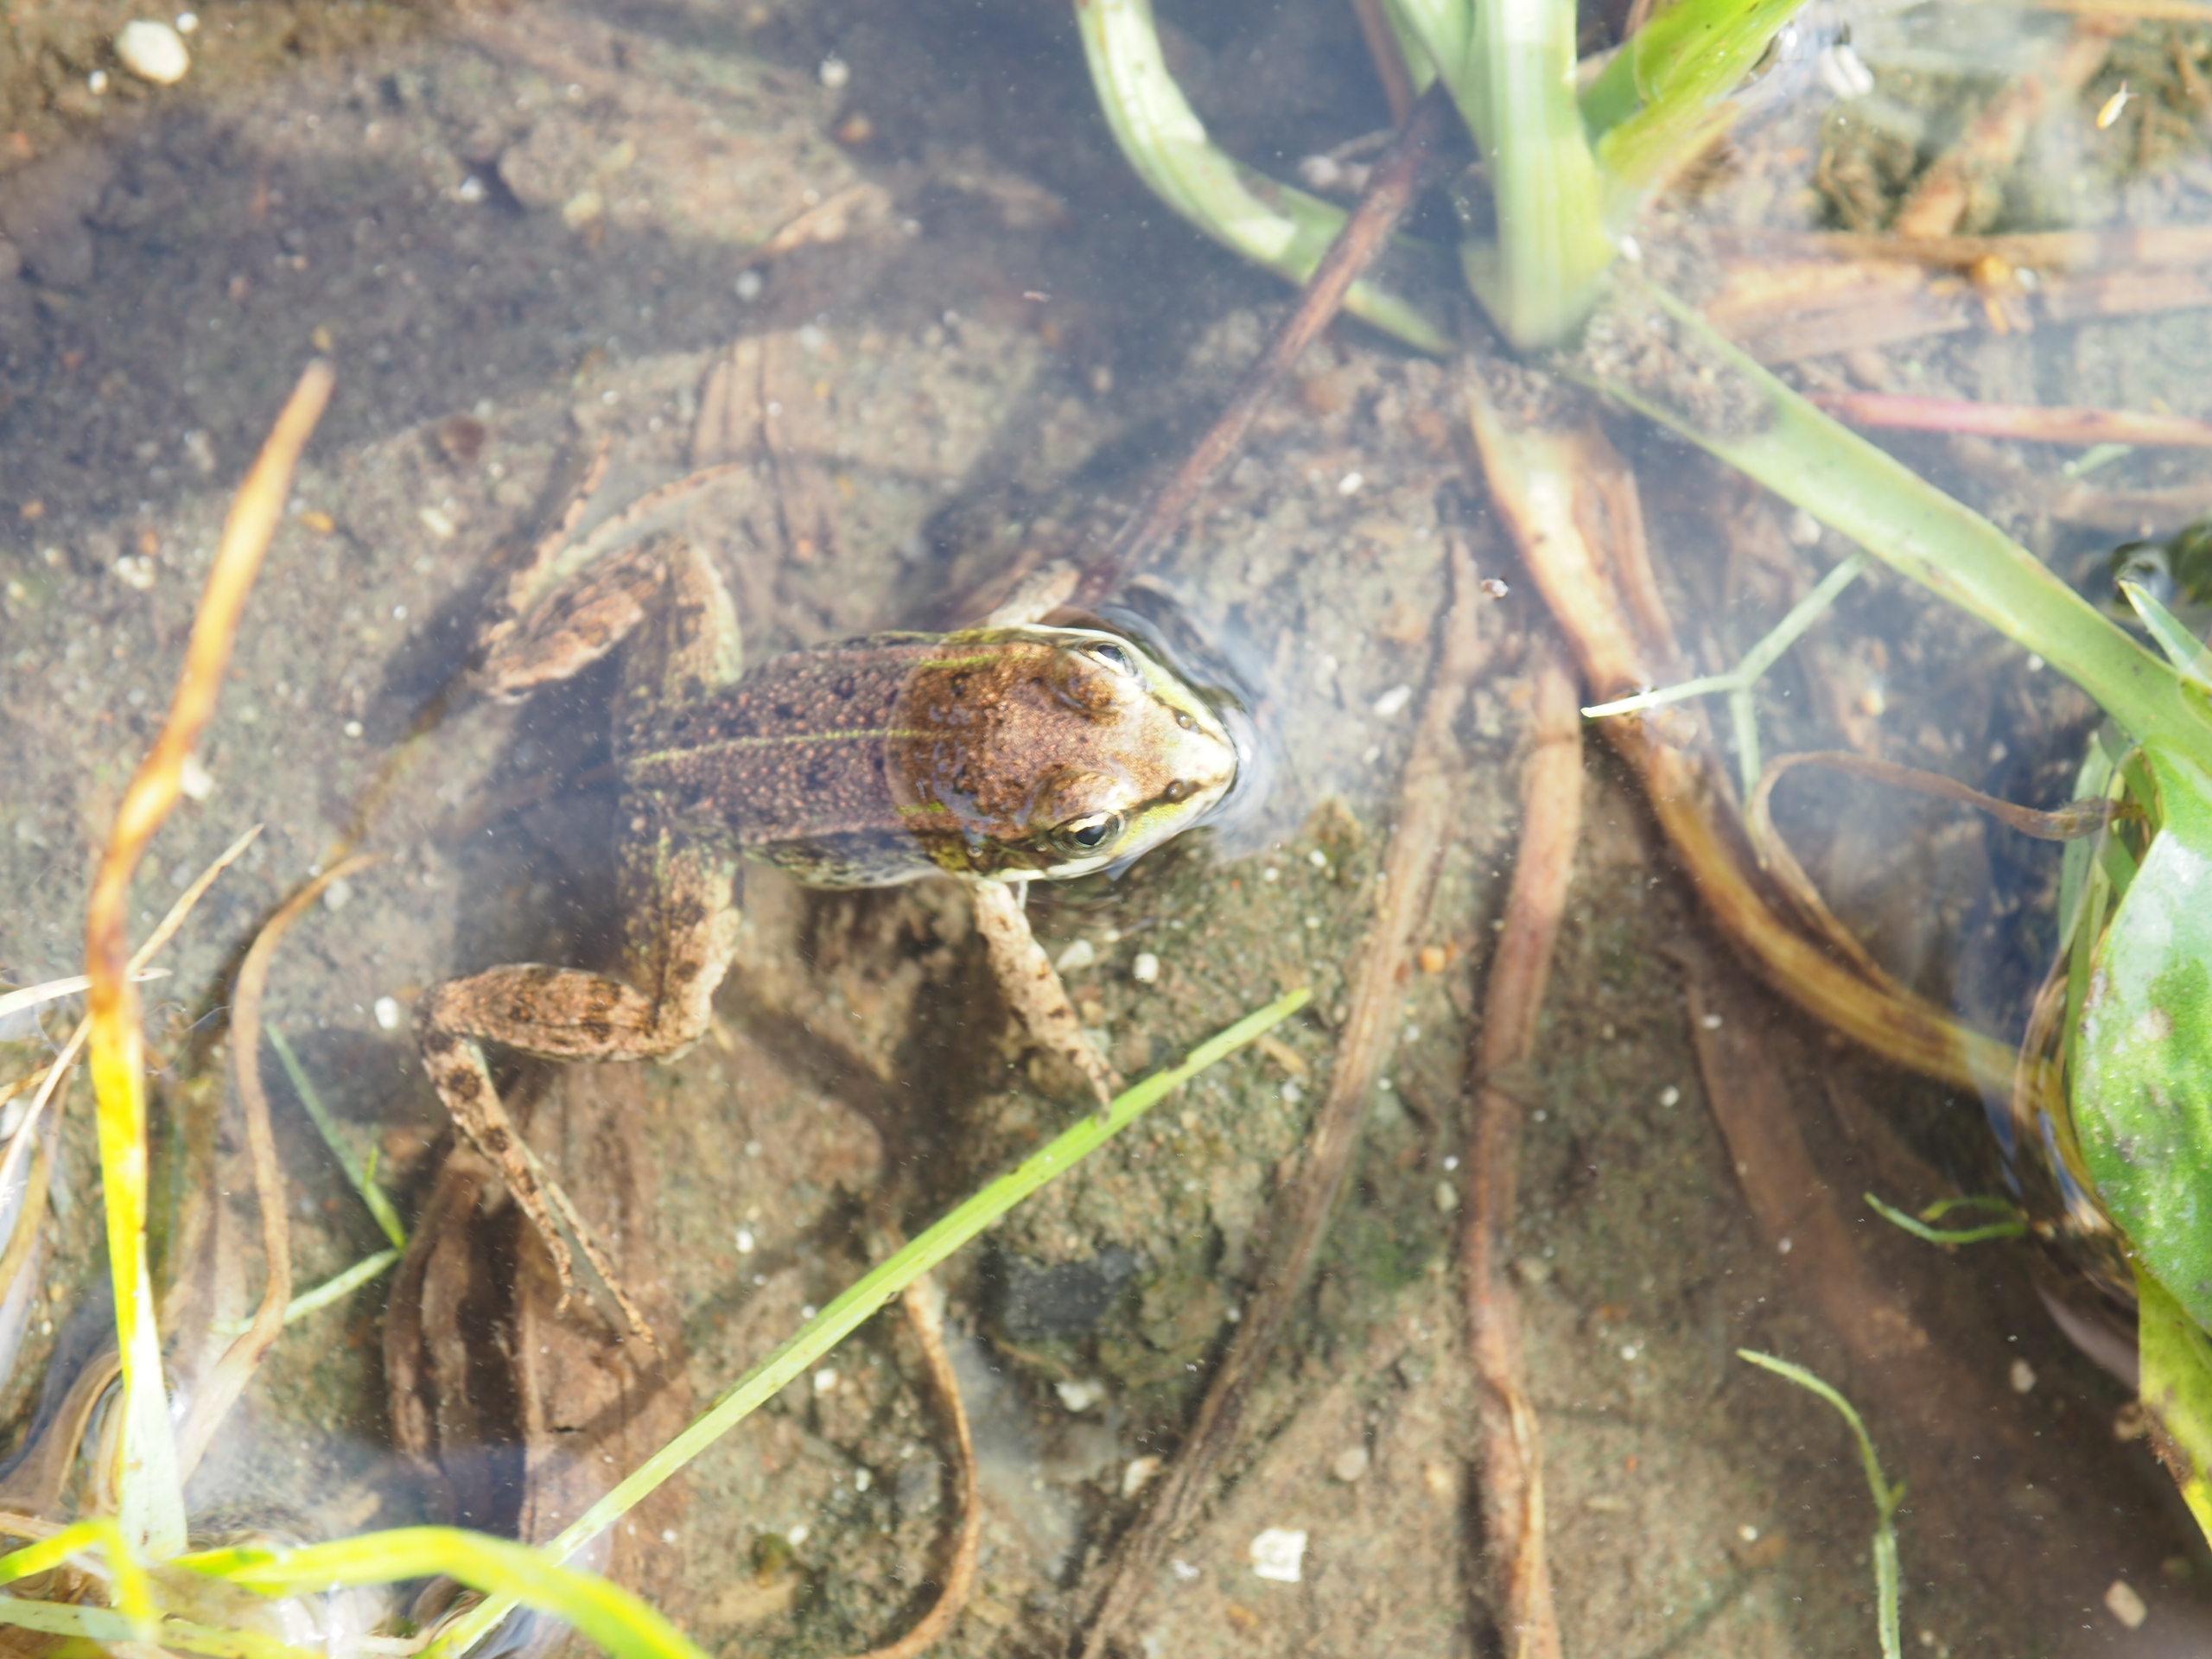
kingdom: Animalia
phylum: Chordata
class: Amphibia
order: Anura
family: Ranidae
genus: Pelophylax
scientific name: Pelophylax lessonae
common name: Grøn frø
